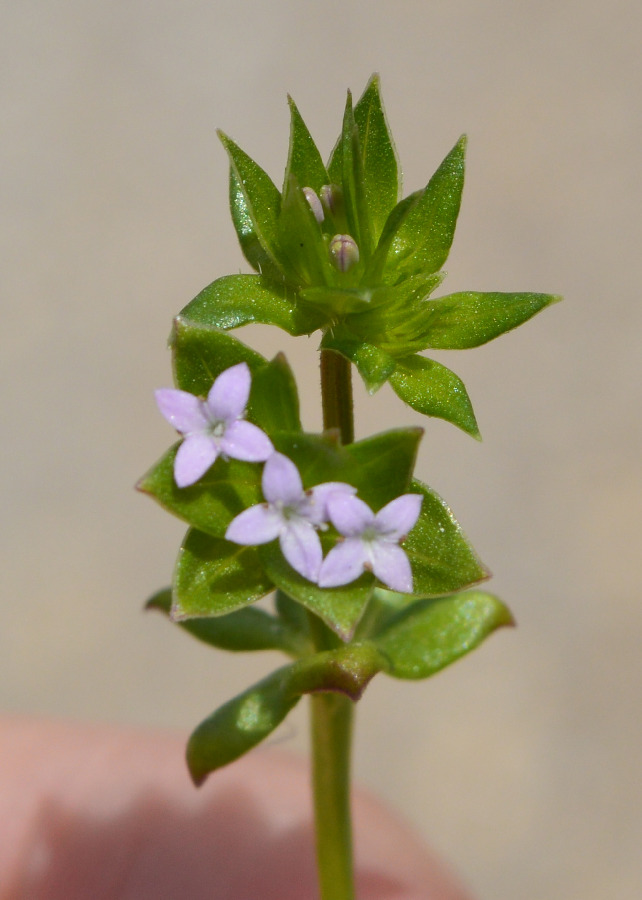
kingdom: Plantae
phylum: Tracheophyta
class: Magnoliopsida
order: Gentianales
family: Rubiaceae
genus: Sherardia
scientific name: Sherardia arvensis
